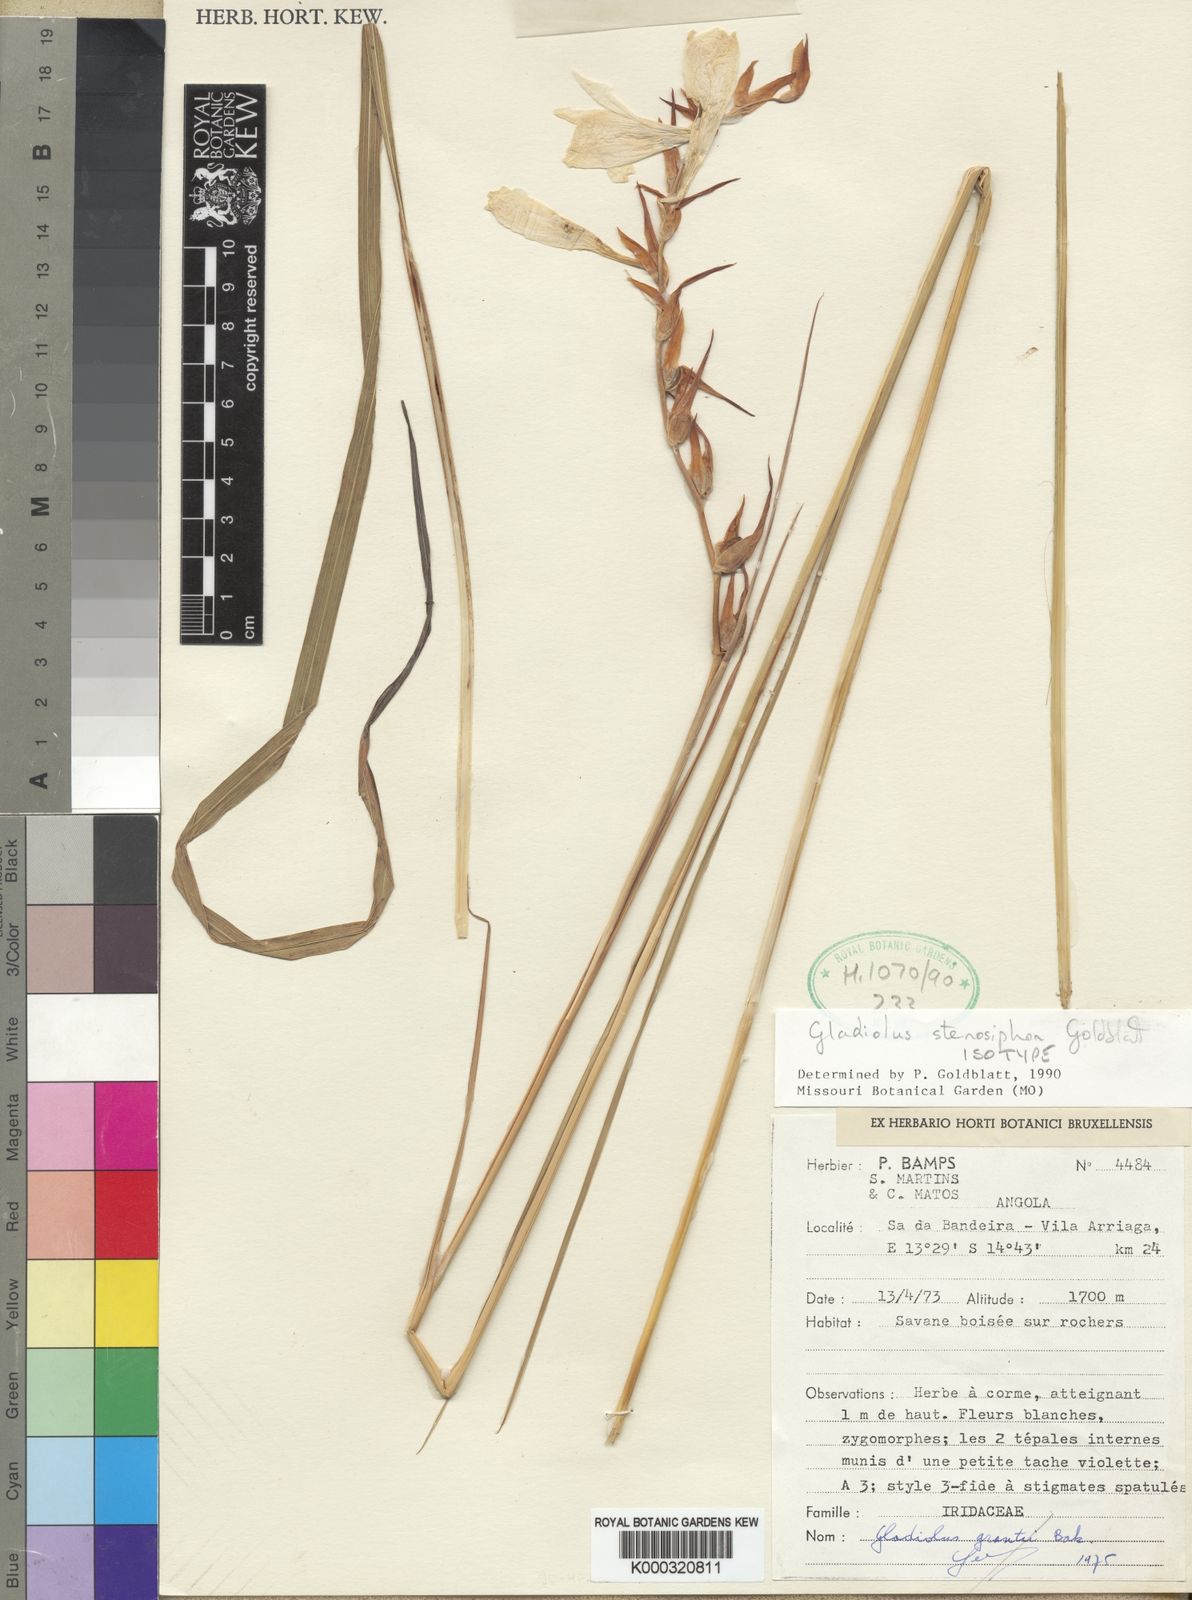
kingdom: Plantae
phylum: Tracheophyta
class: Liliopsida
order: Asparagales
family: Iridaceae
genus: Gladiolus
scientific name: Gladiolus stenosiphon
